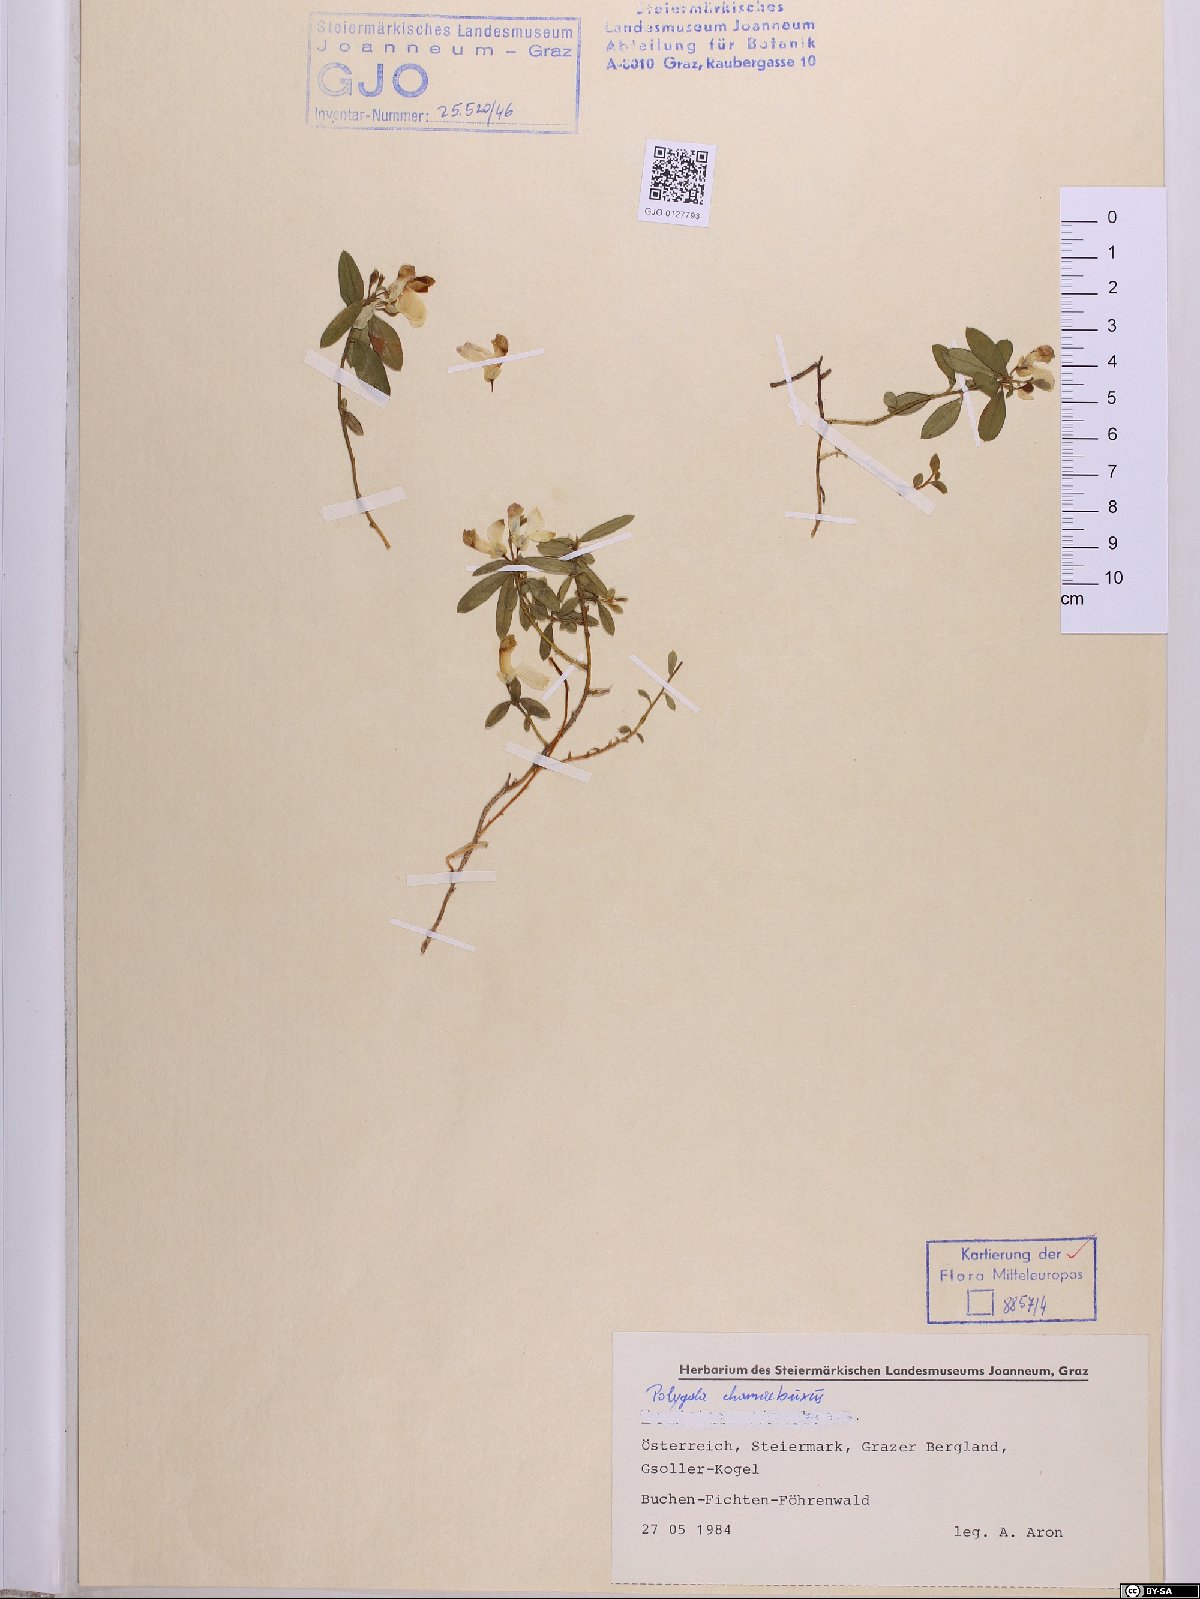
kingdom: Plantae
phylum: Tracheophyta
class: Magnoliopsida
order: Fabales
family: Polygalaceae
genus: Polygaloides
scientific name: Polygaloides chamaebuxus
